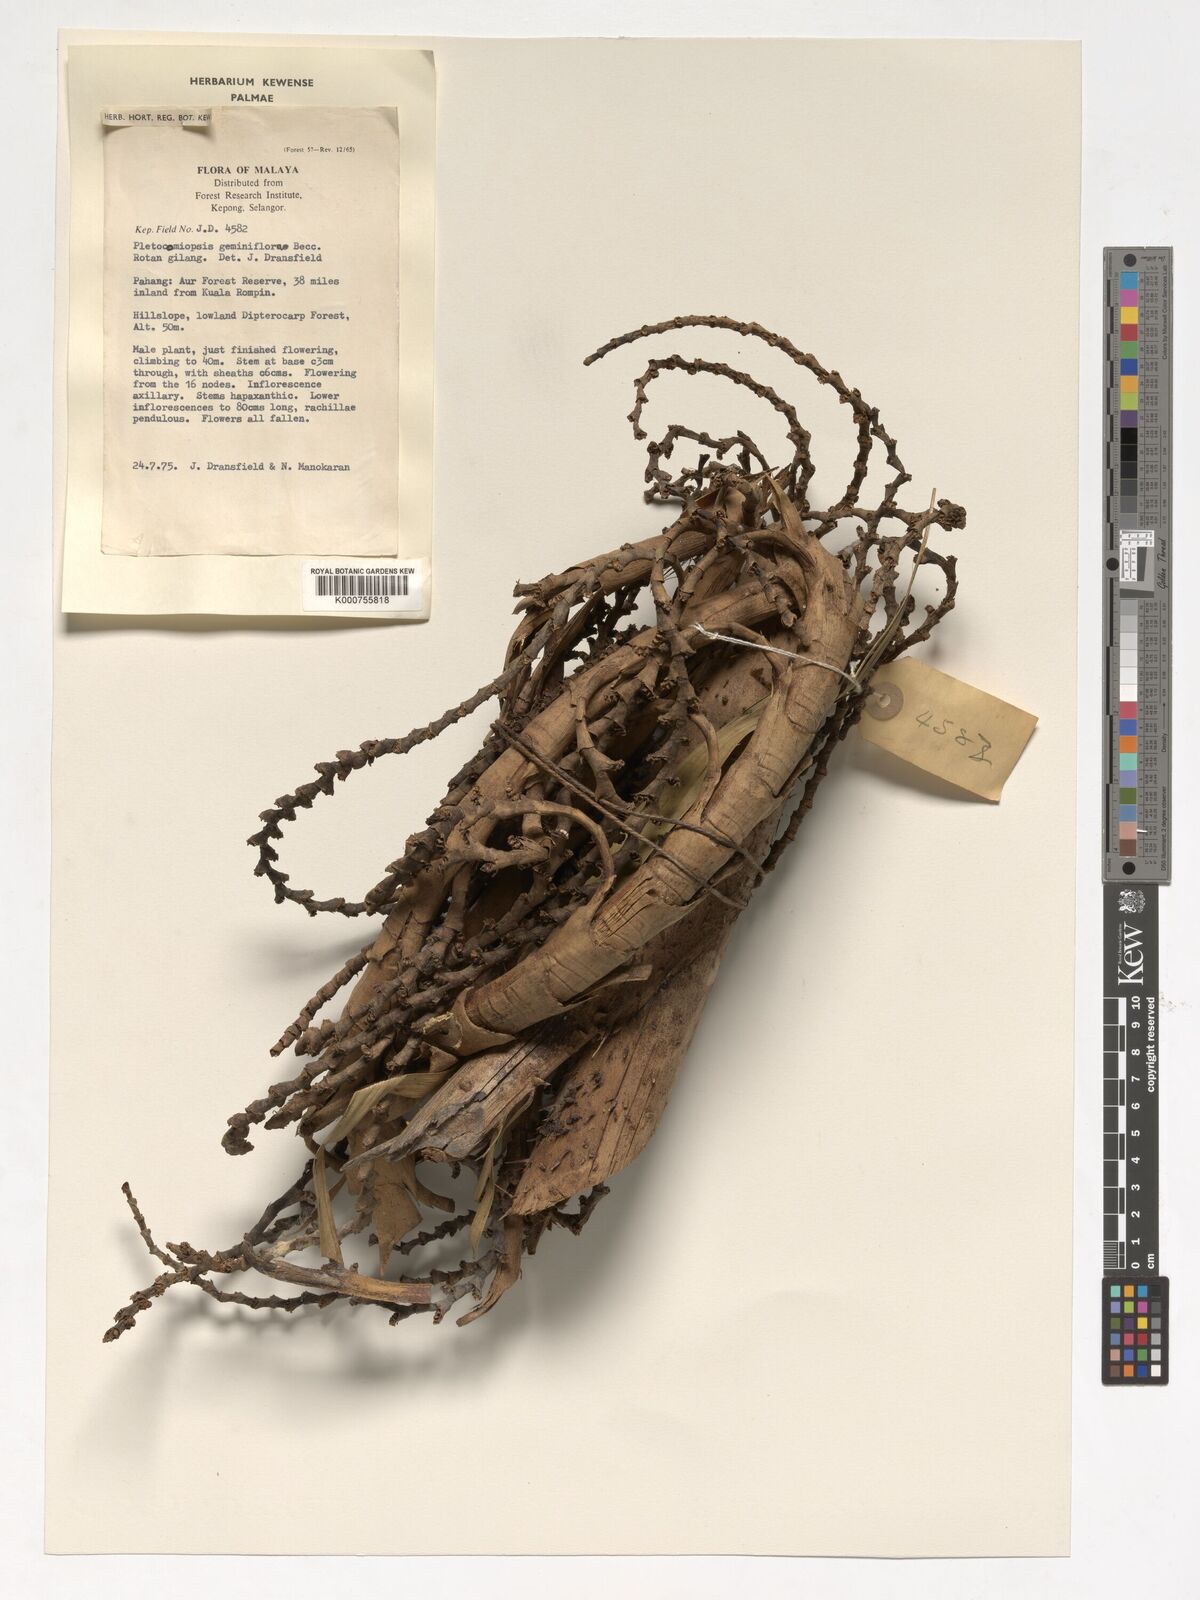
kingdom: Plantae
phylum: Tracheophyta
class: Liliopsida
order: Arecales
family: Arecaceae
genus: Plectocomiopsis
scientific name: Plectocomiopsis geminiflora
